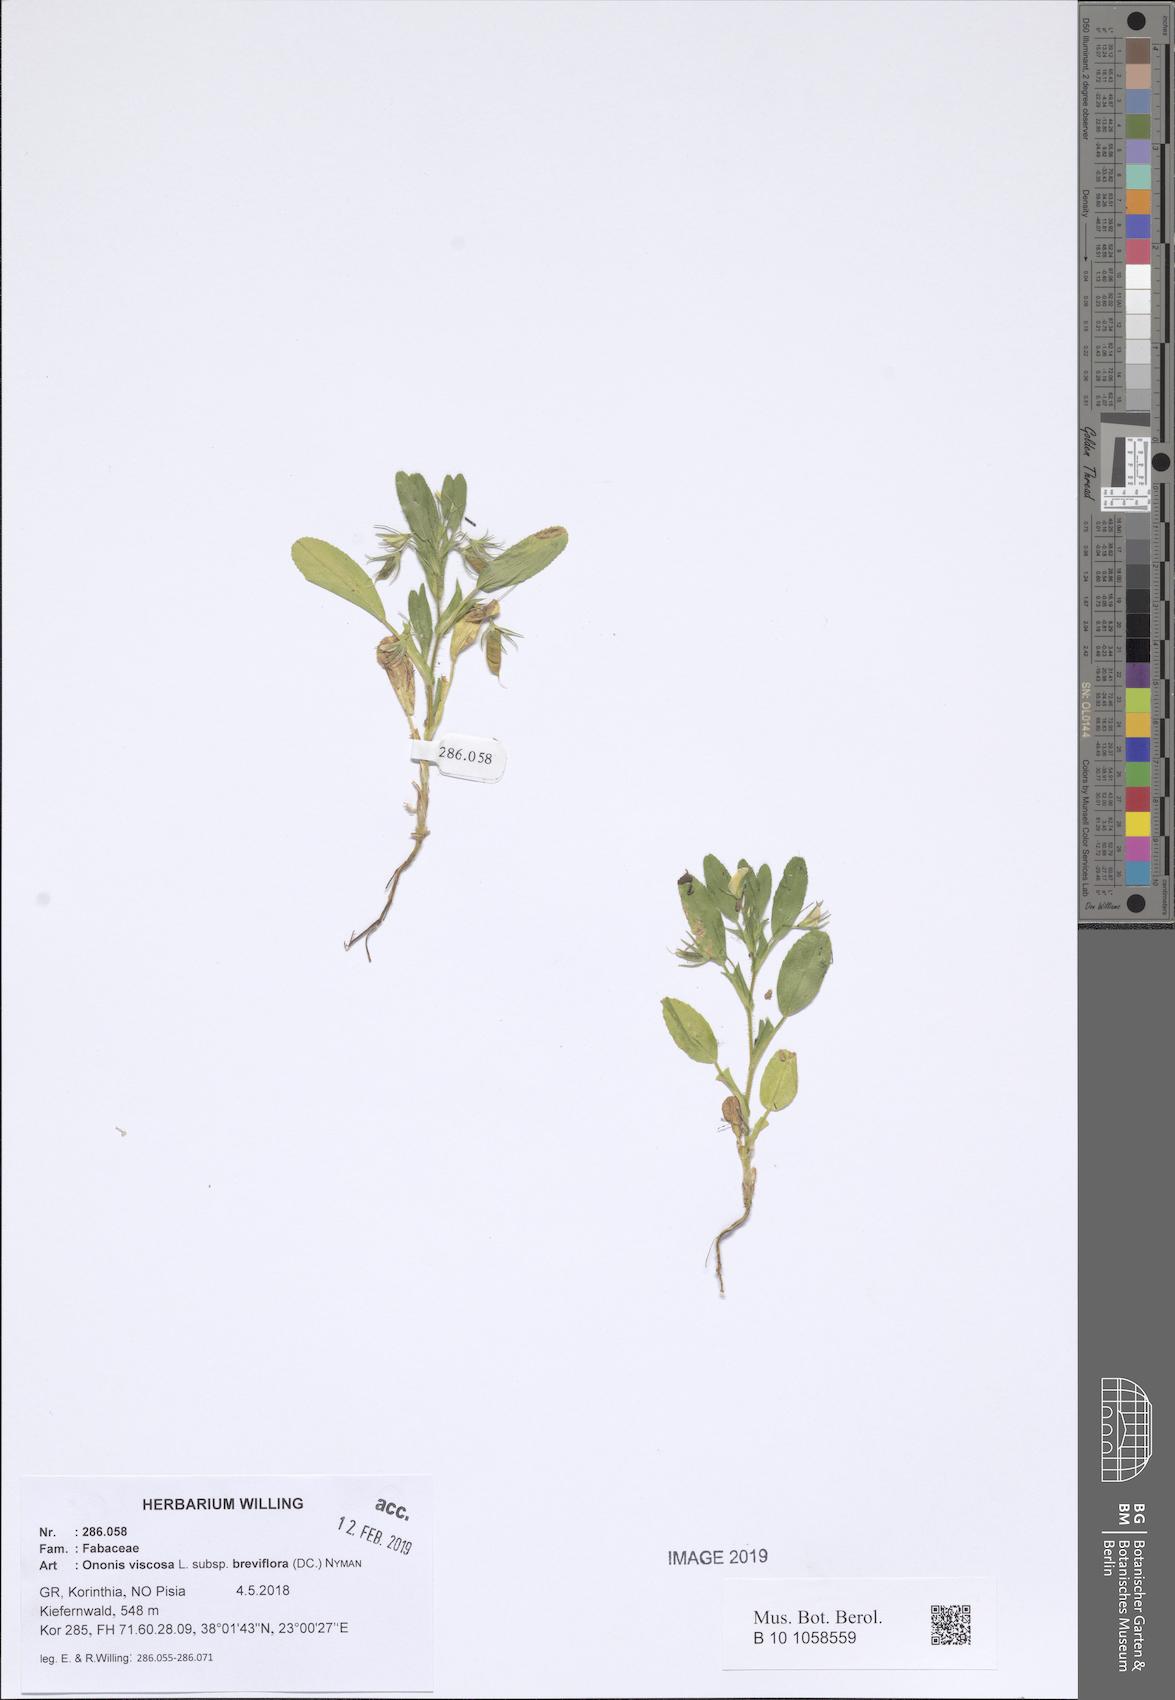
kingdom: Plantae
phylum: Tracheophyta
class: Magnoliopsida
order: Fabales
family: Fabaceae
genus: Ononis
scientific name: Ononis viscosa
